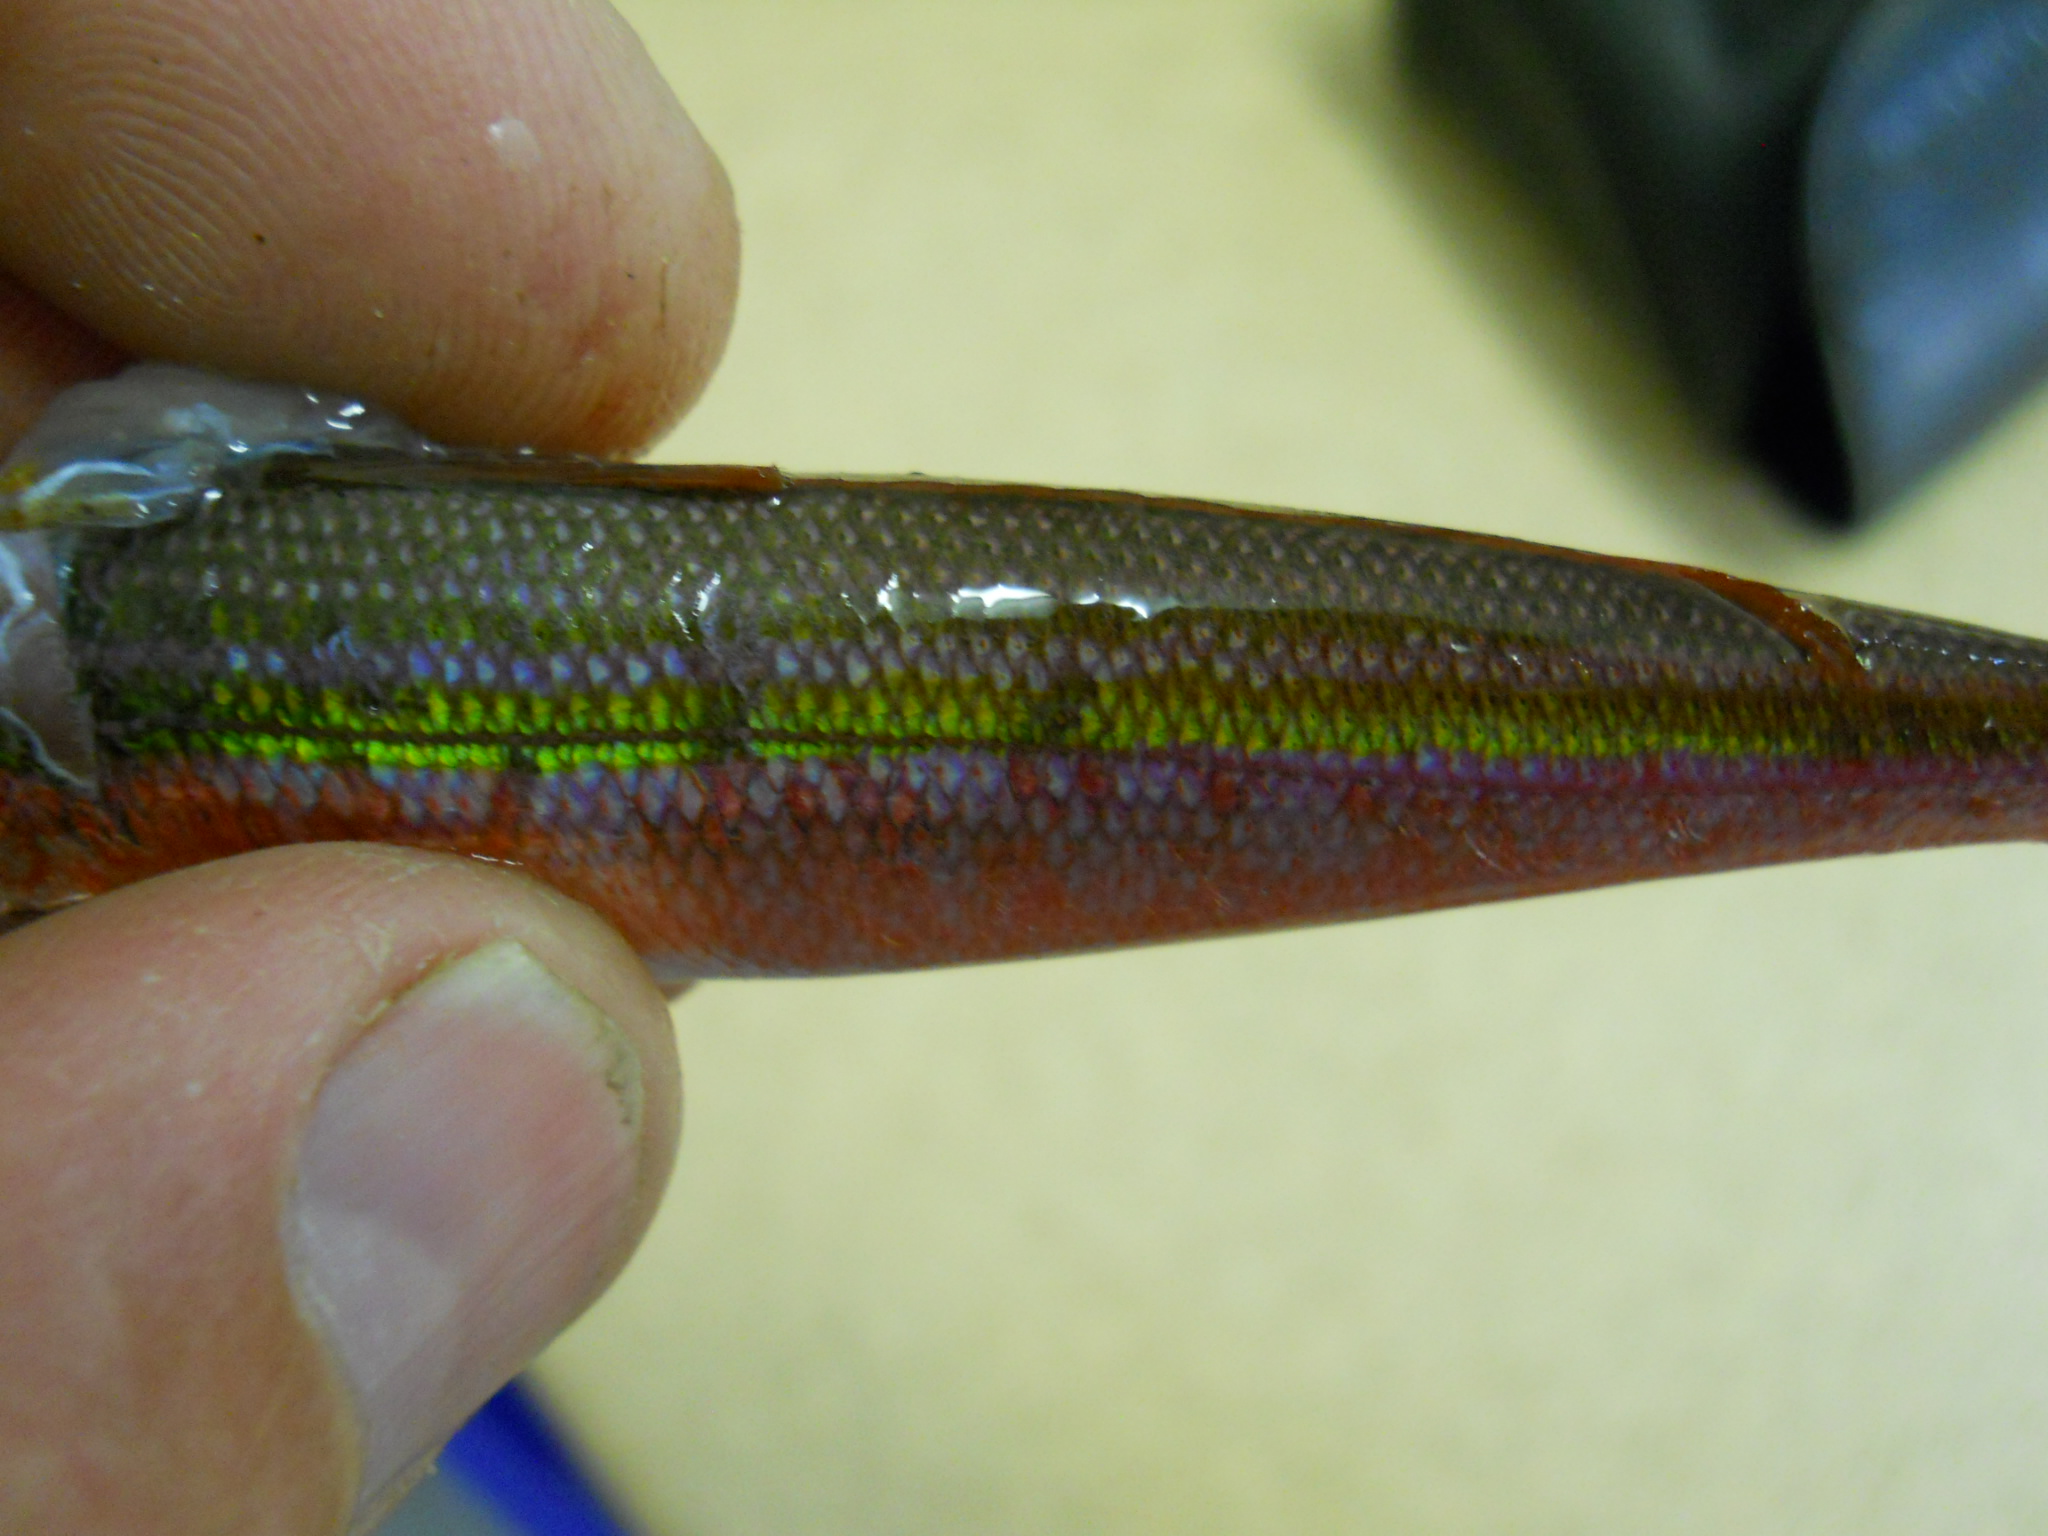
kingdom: Animalia
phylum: Chordata
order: Perciformes
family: Caesionidae
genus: Gymnocaesio
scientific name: Gymnocaesio gymnoptera
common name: Slender fusilier
